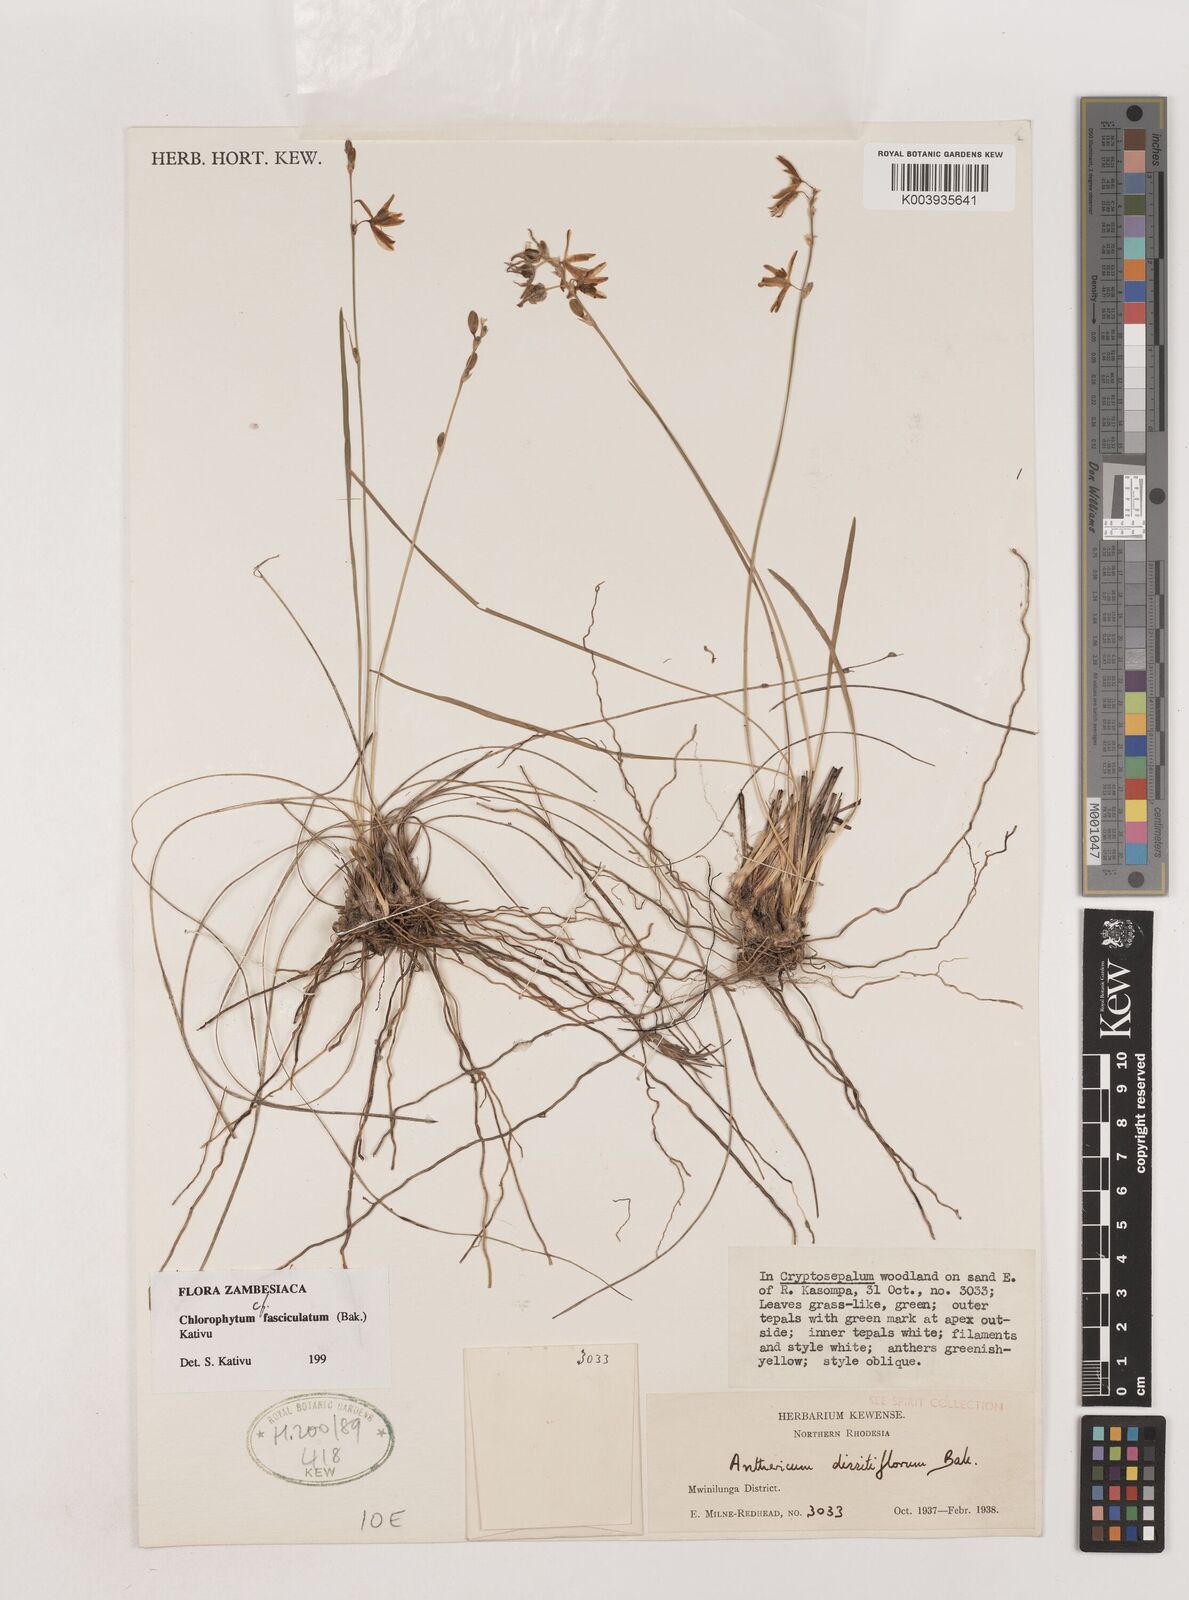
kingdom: Plantae
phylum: Tracheophyta
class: Liliopsida
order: Asparagales
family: Asparagaceae
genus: Chlorophytum
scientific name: Chlorophytum sphagnicola
